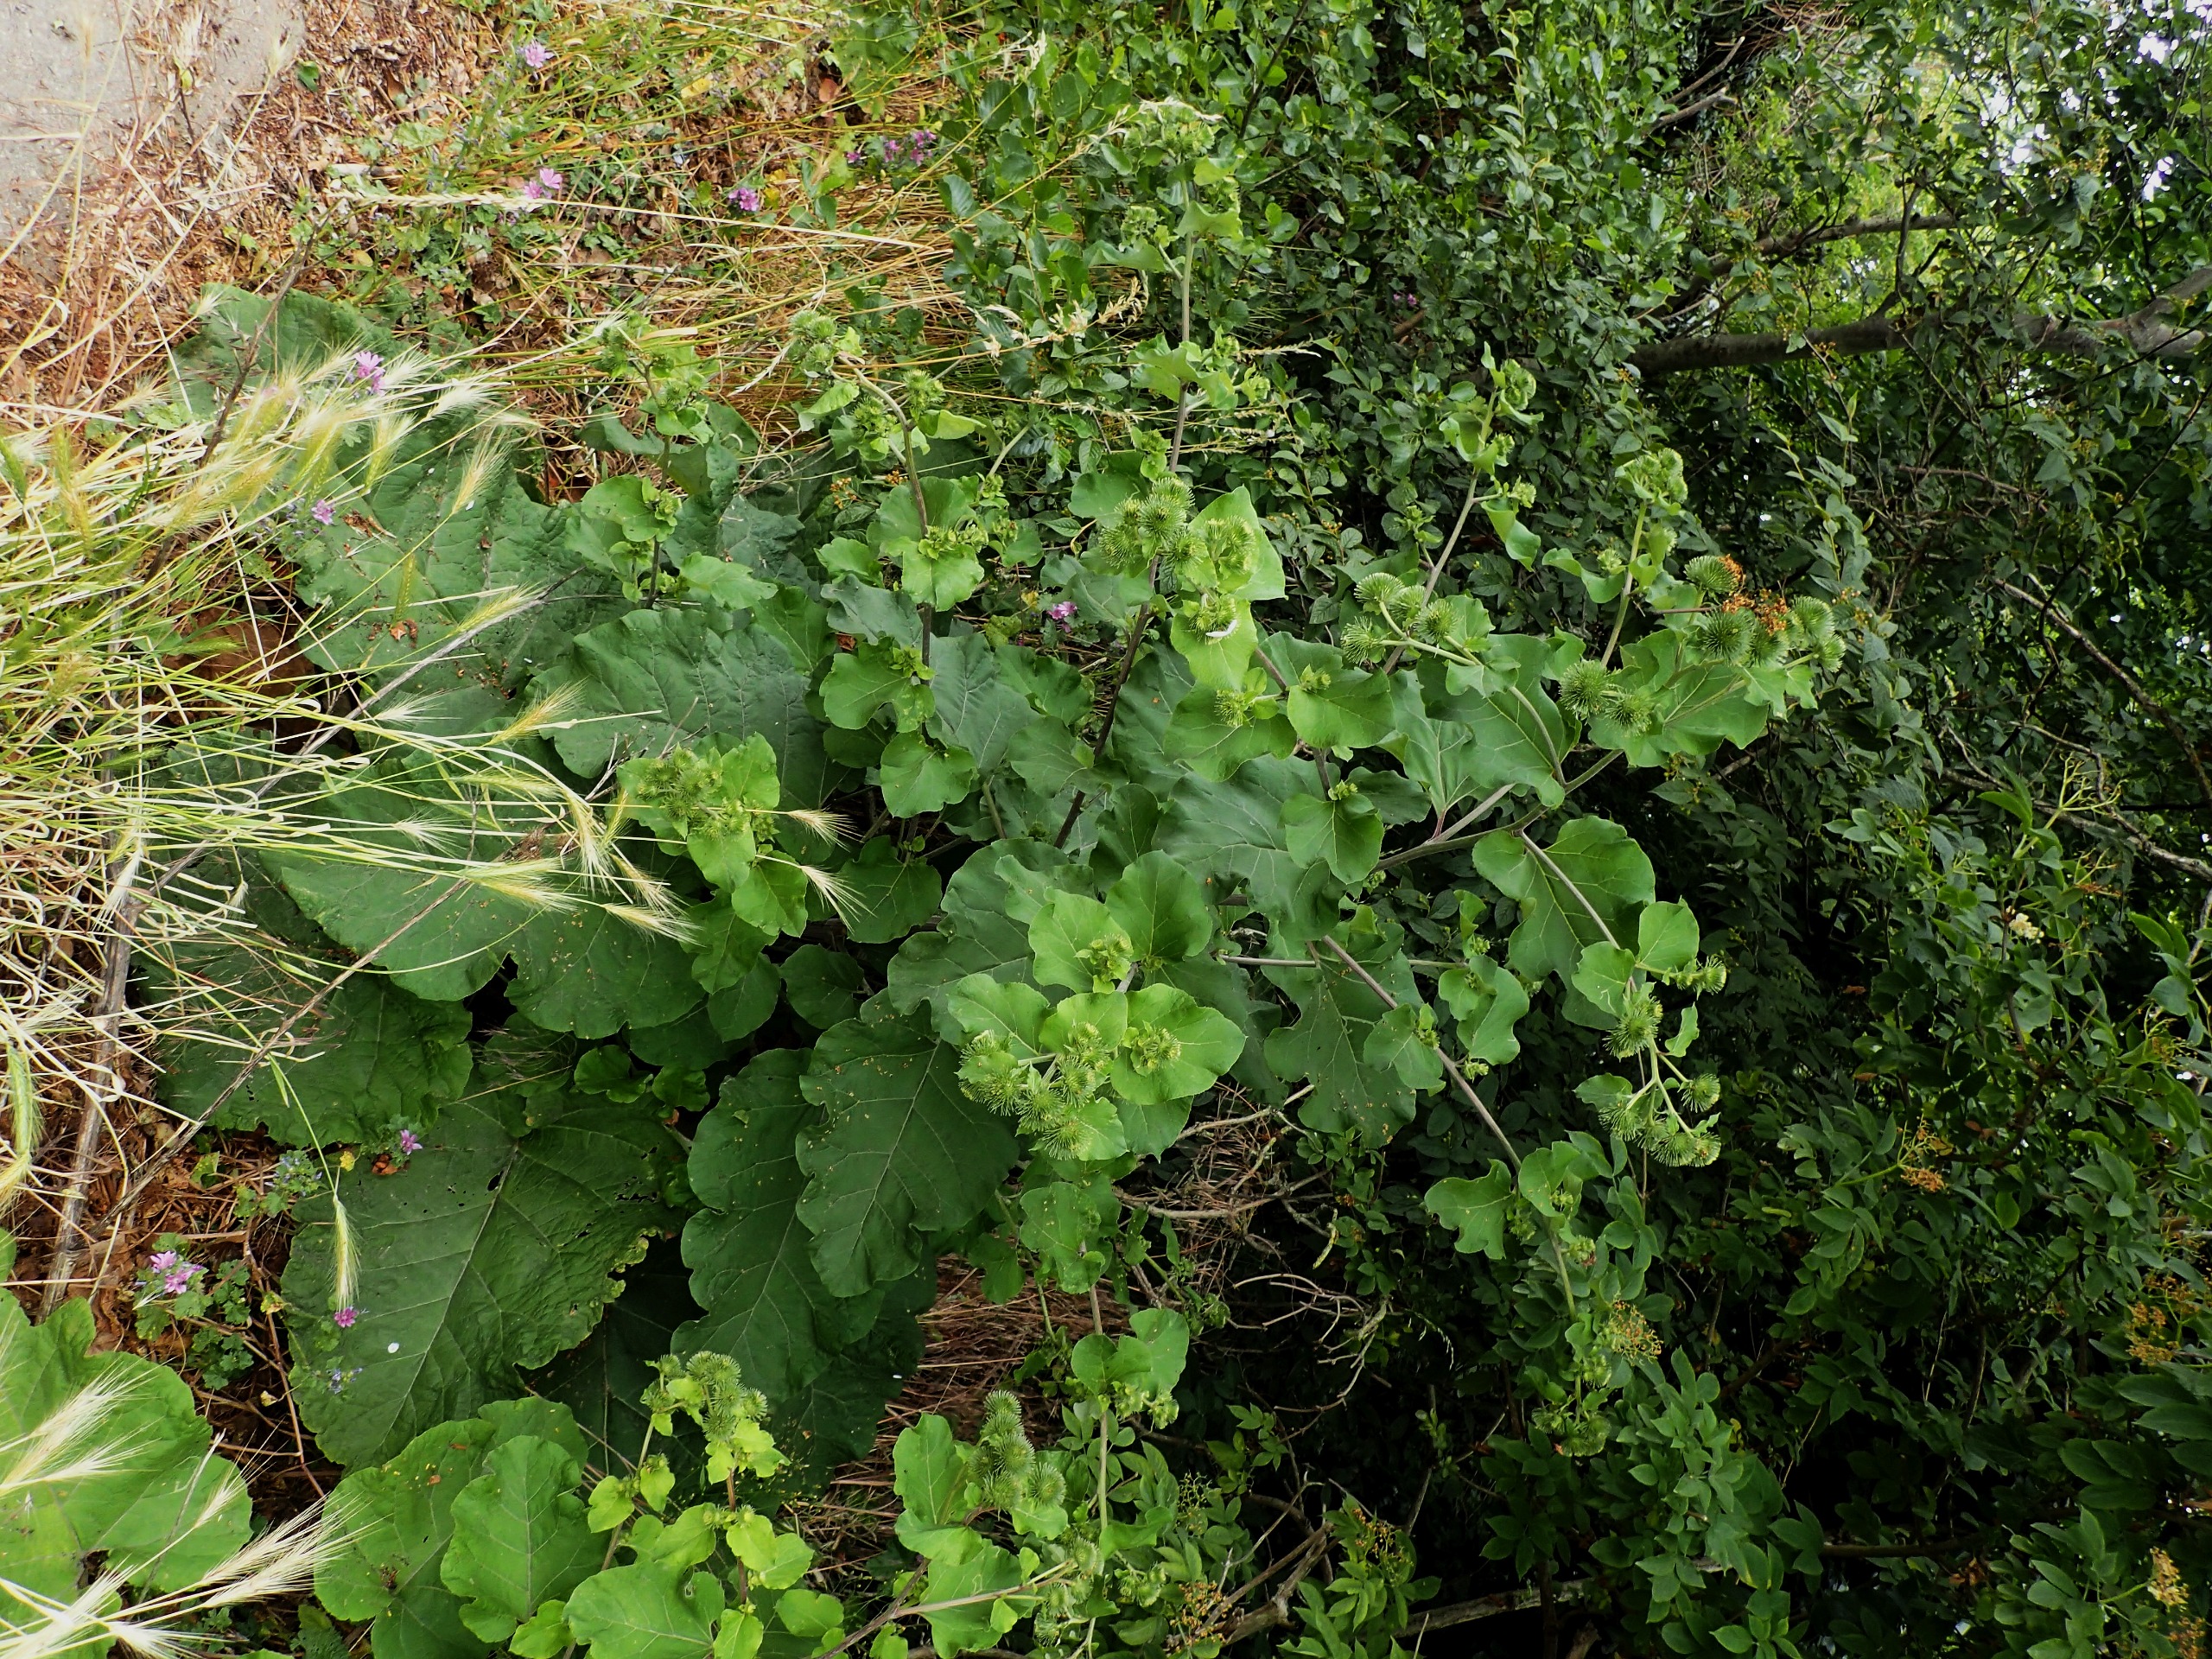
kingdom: Plantae
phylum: Tracheophyta
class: Magnoliopsida
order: Asterales
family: Asteraceae
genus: Arctium
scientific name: Arctium lappa
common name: Glat burre
